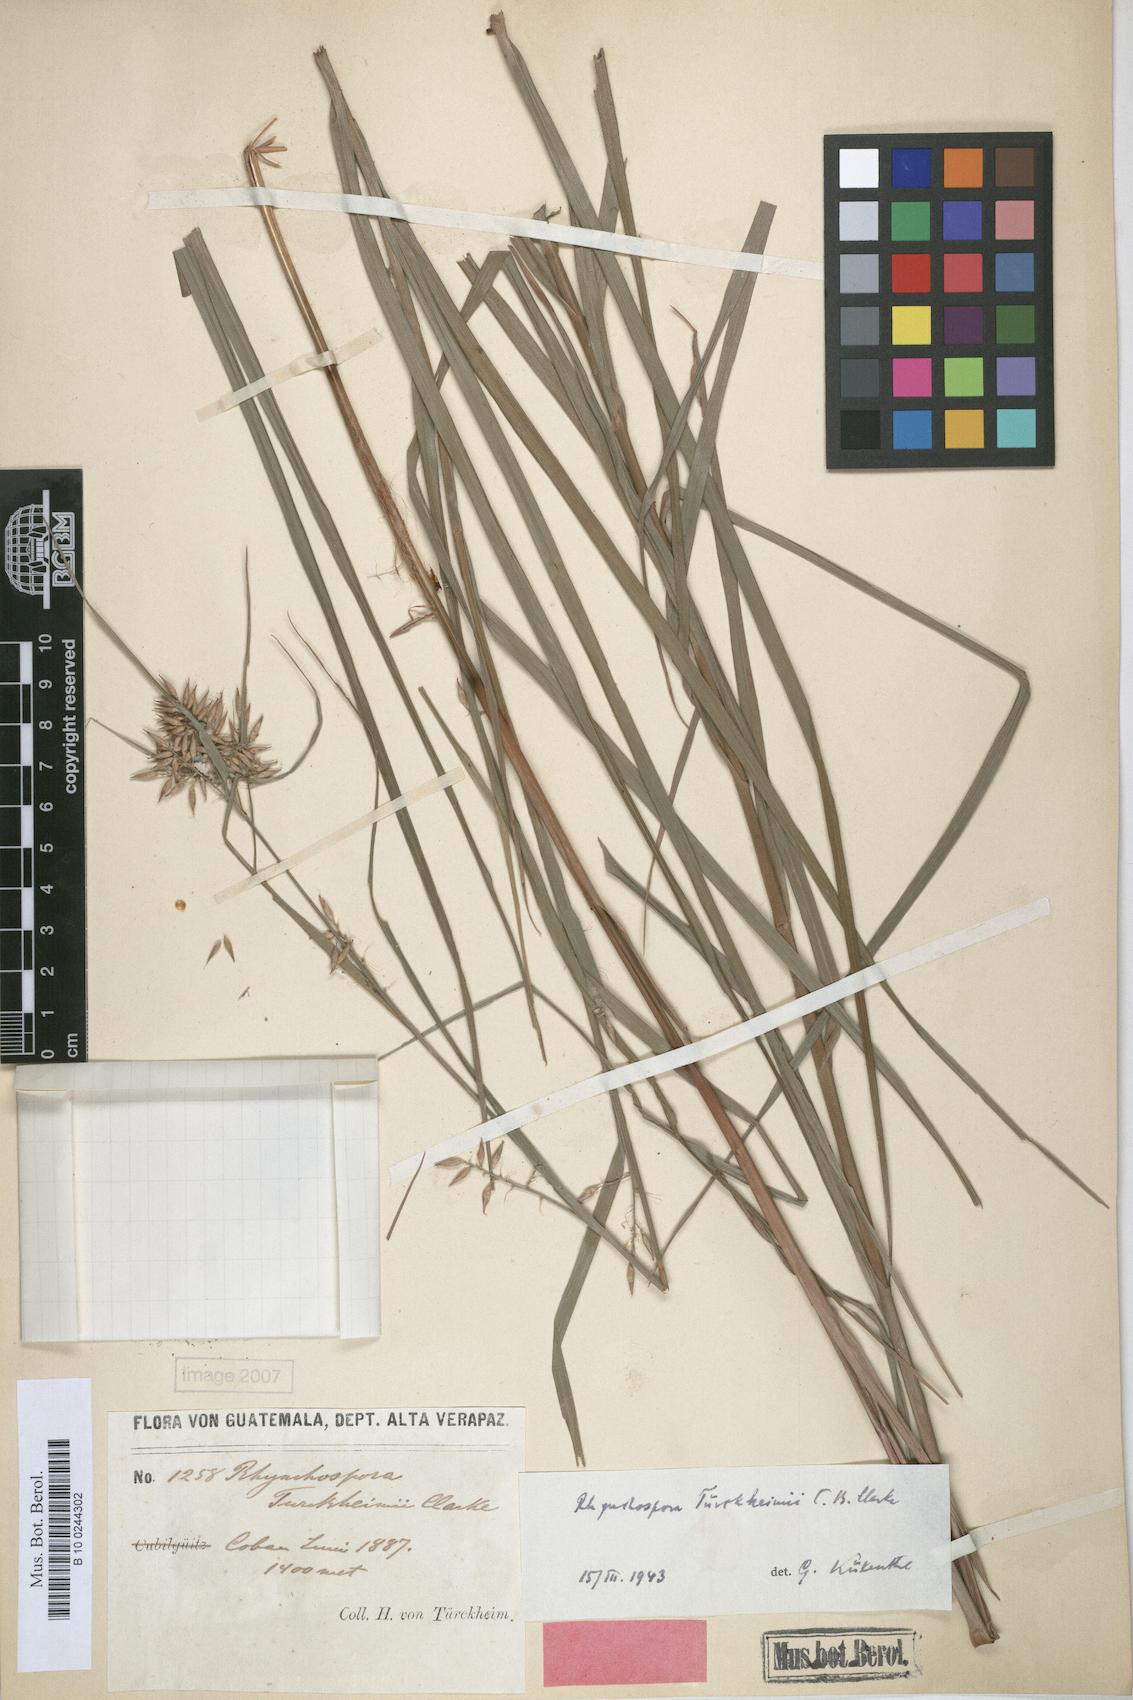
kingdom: Plantae
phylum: Tracheophyta
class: Liliopsida
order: Poales
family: Cyperaceae
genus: Rhynchospora
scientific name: Rhynchospora tuerckheimii
